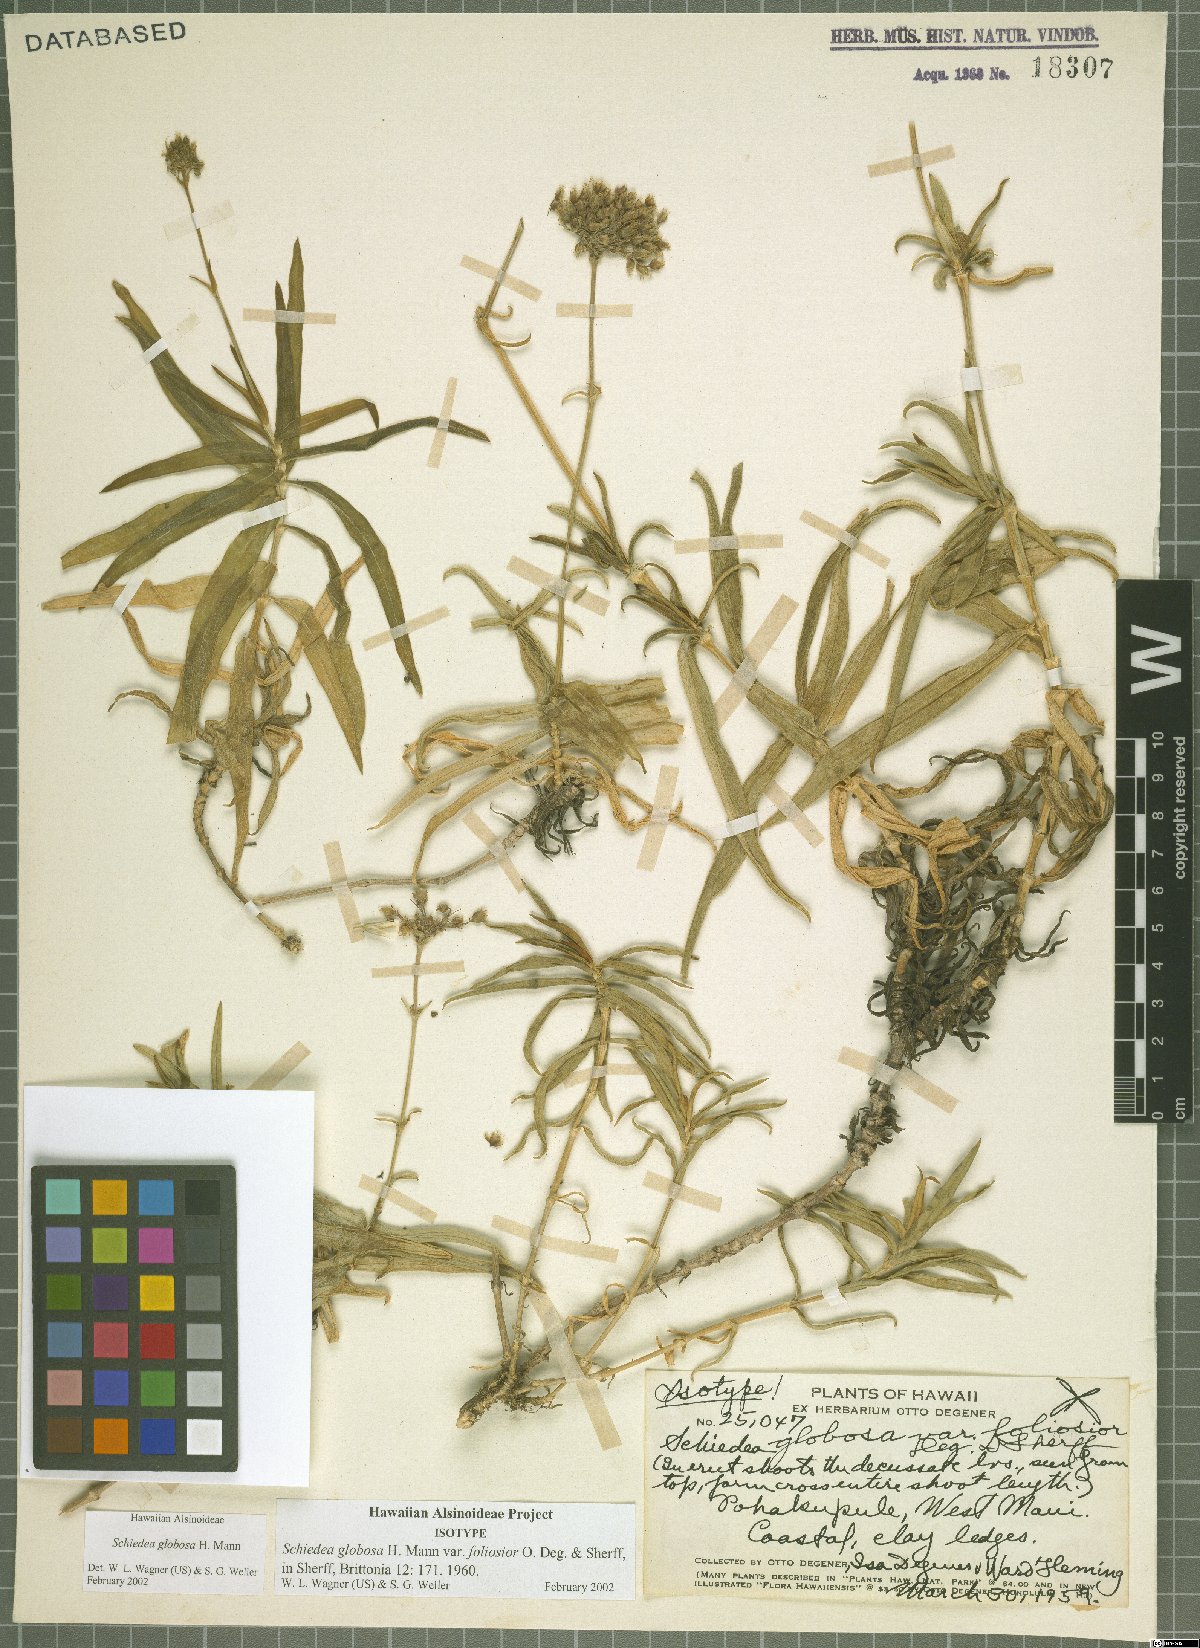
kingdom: Plantae
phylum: Tracheophyta
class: Magnoliopsida
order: Caryophyllales
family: Caryophyllaceae
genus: Schiedea
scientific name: Schiedea globosa
